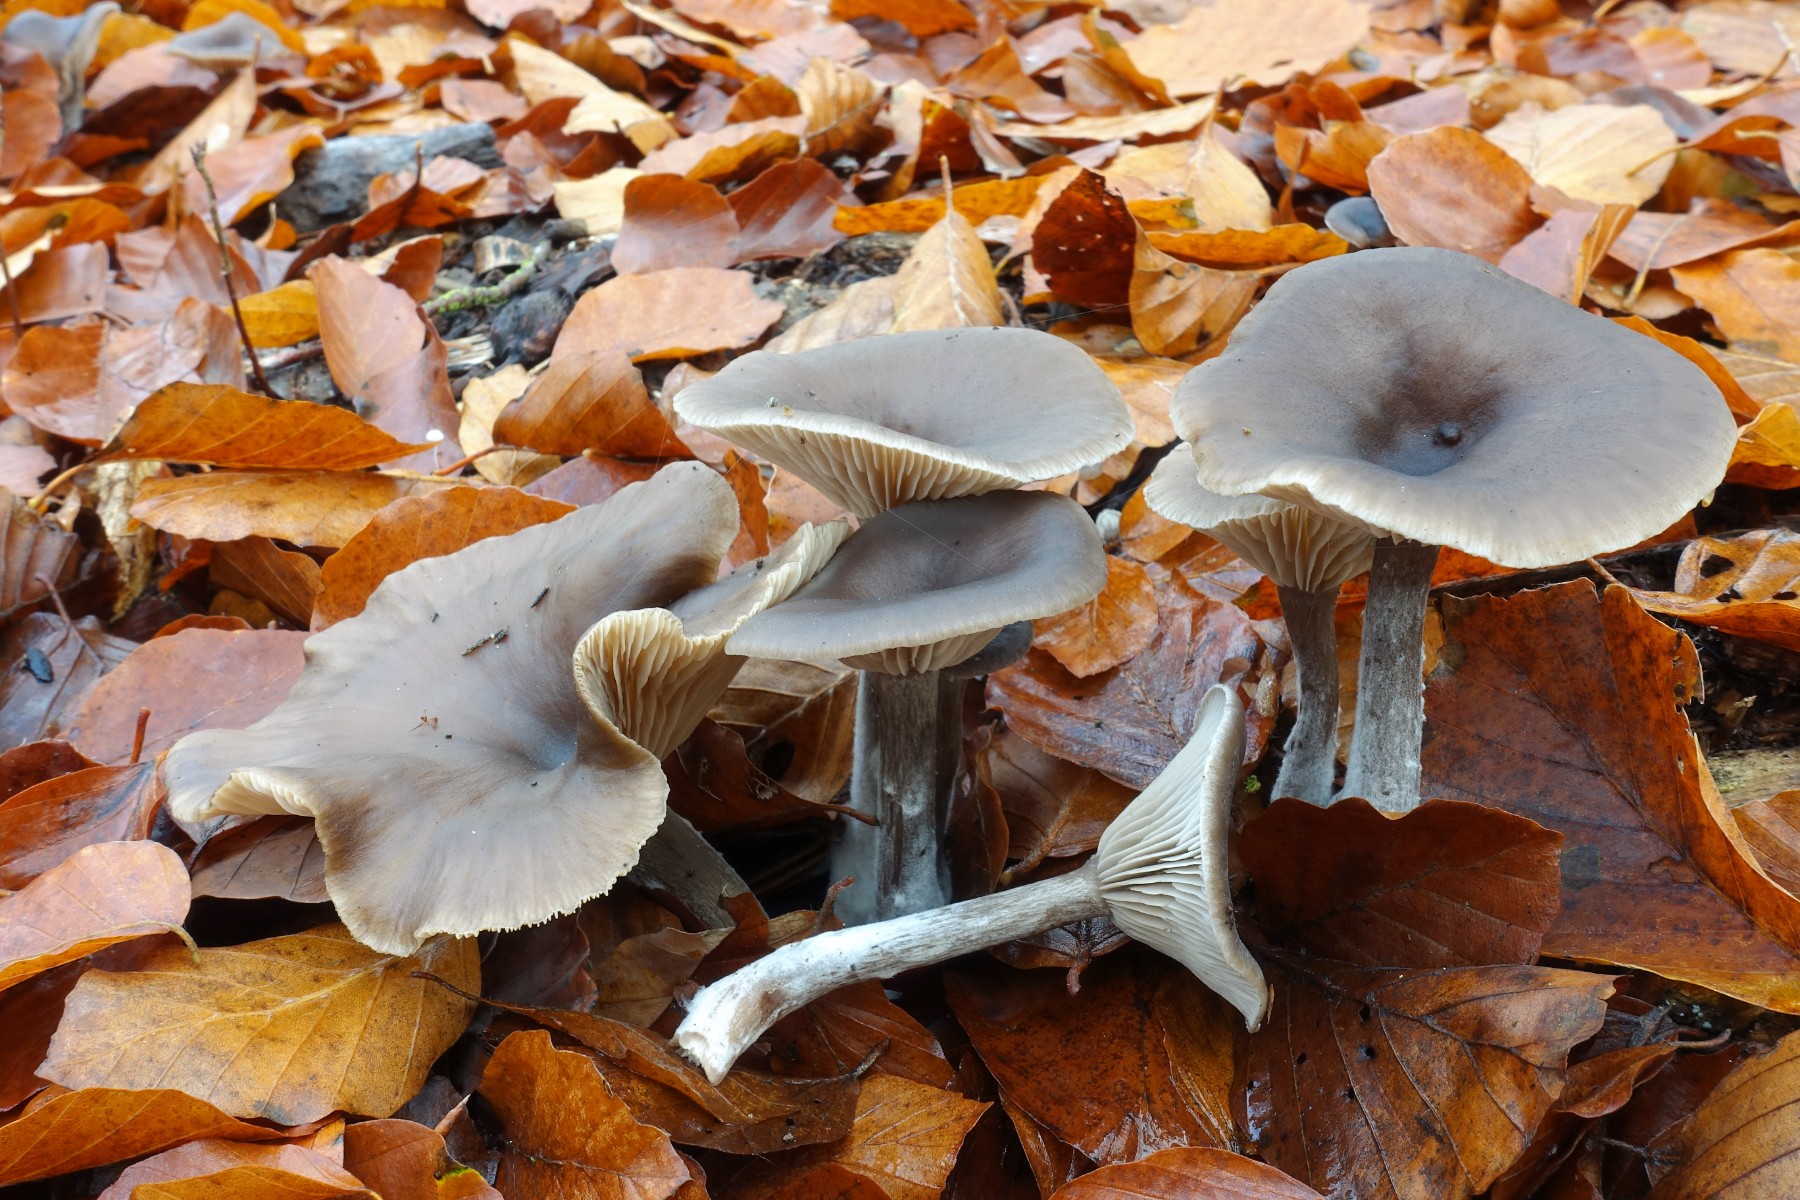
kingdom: Fungi
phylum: Basidiomycota
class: Agaricomycetes
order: Agaricales
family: Pseudoclitocybaceae
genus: Pseudoclitocybe
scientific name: Pseudoclitocybe cyathiformis
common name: almindelig bægertragthat
